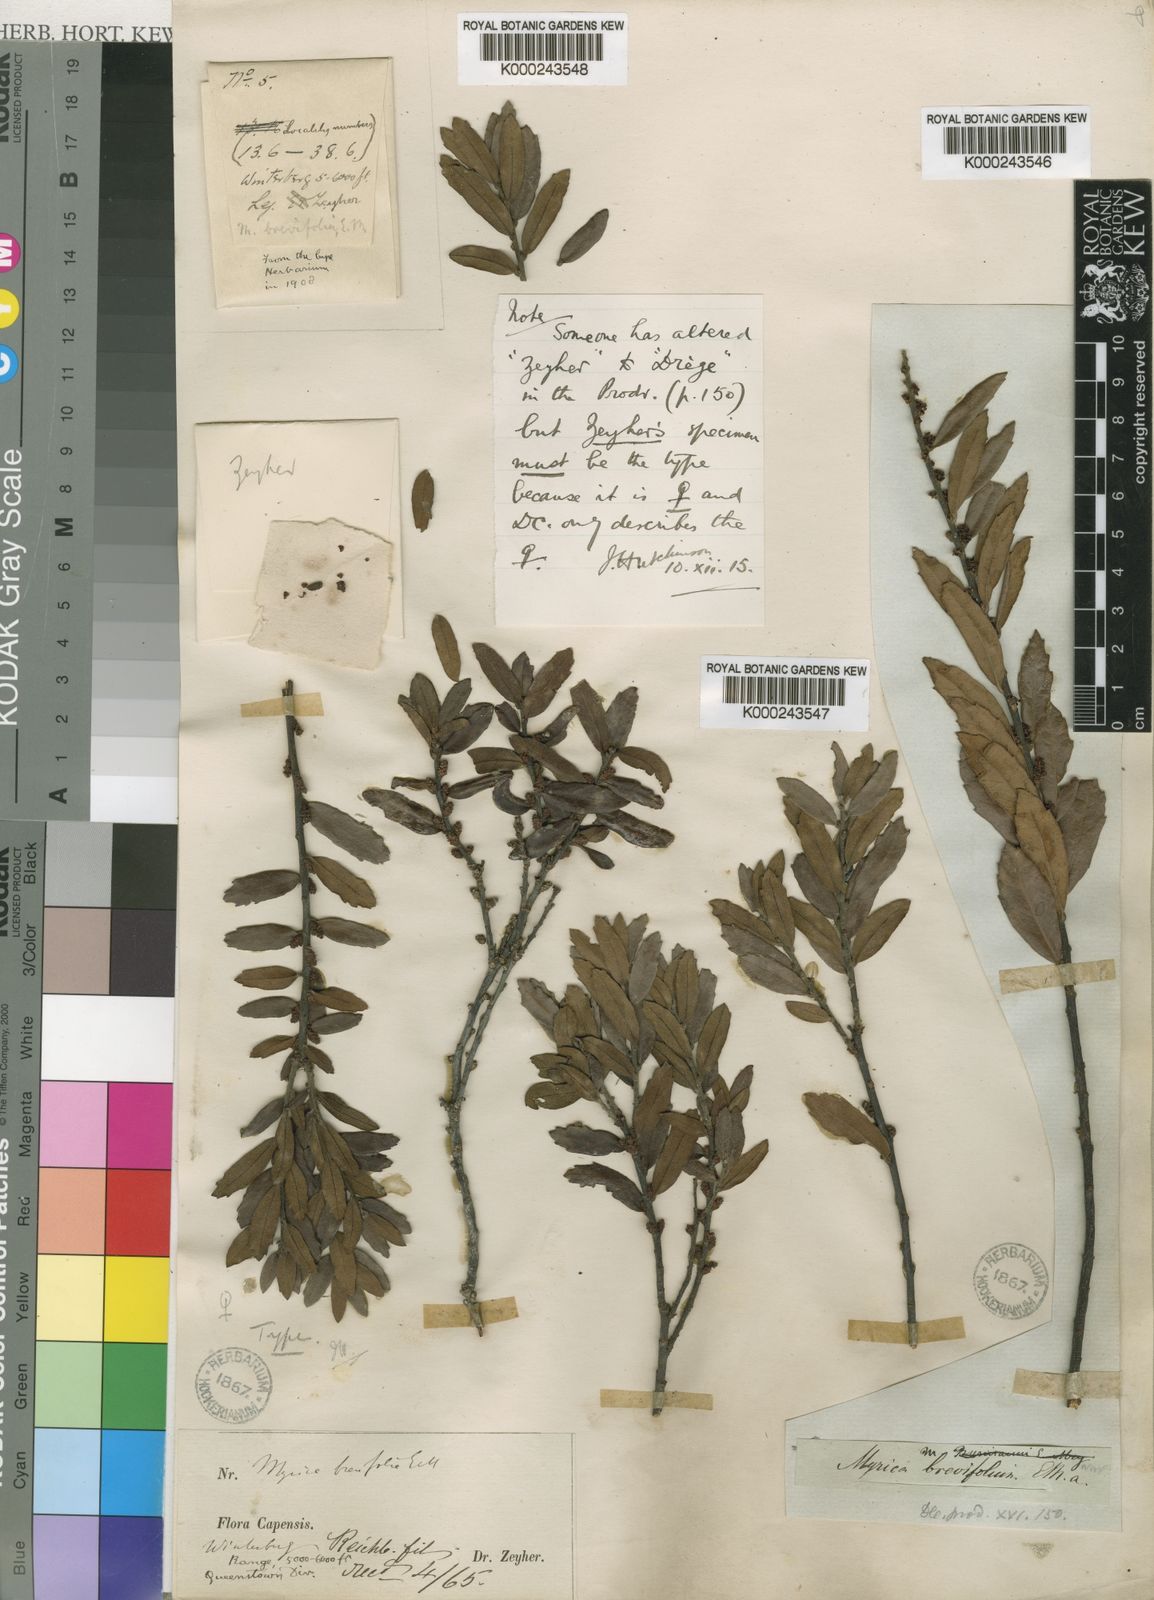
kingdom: Plantae
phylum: Tracheophyta
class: Magnoliopsida
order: Fagales
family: Myricaceae
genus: Morella
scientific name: Morella brevifolia
